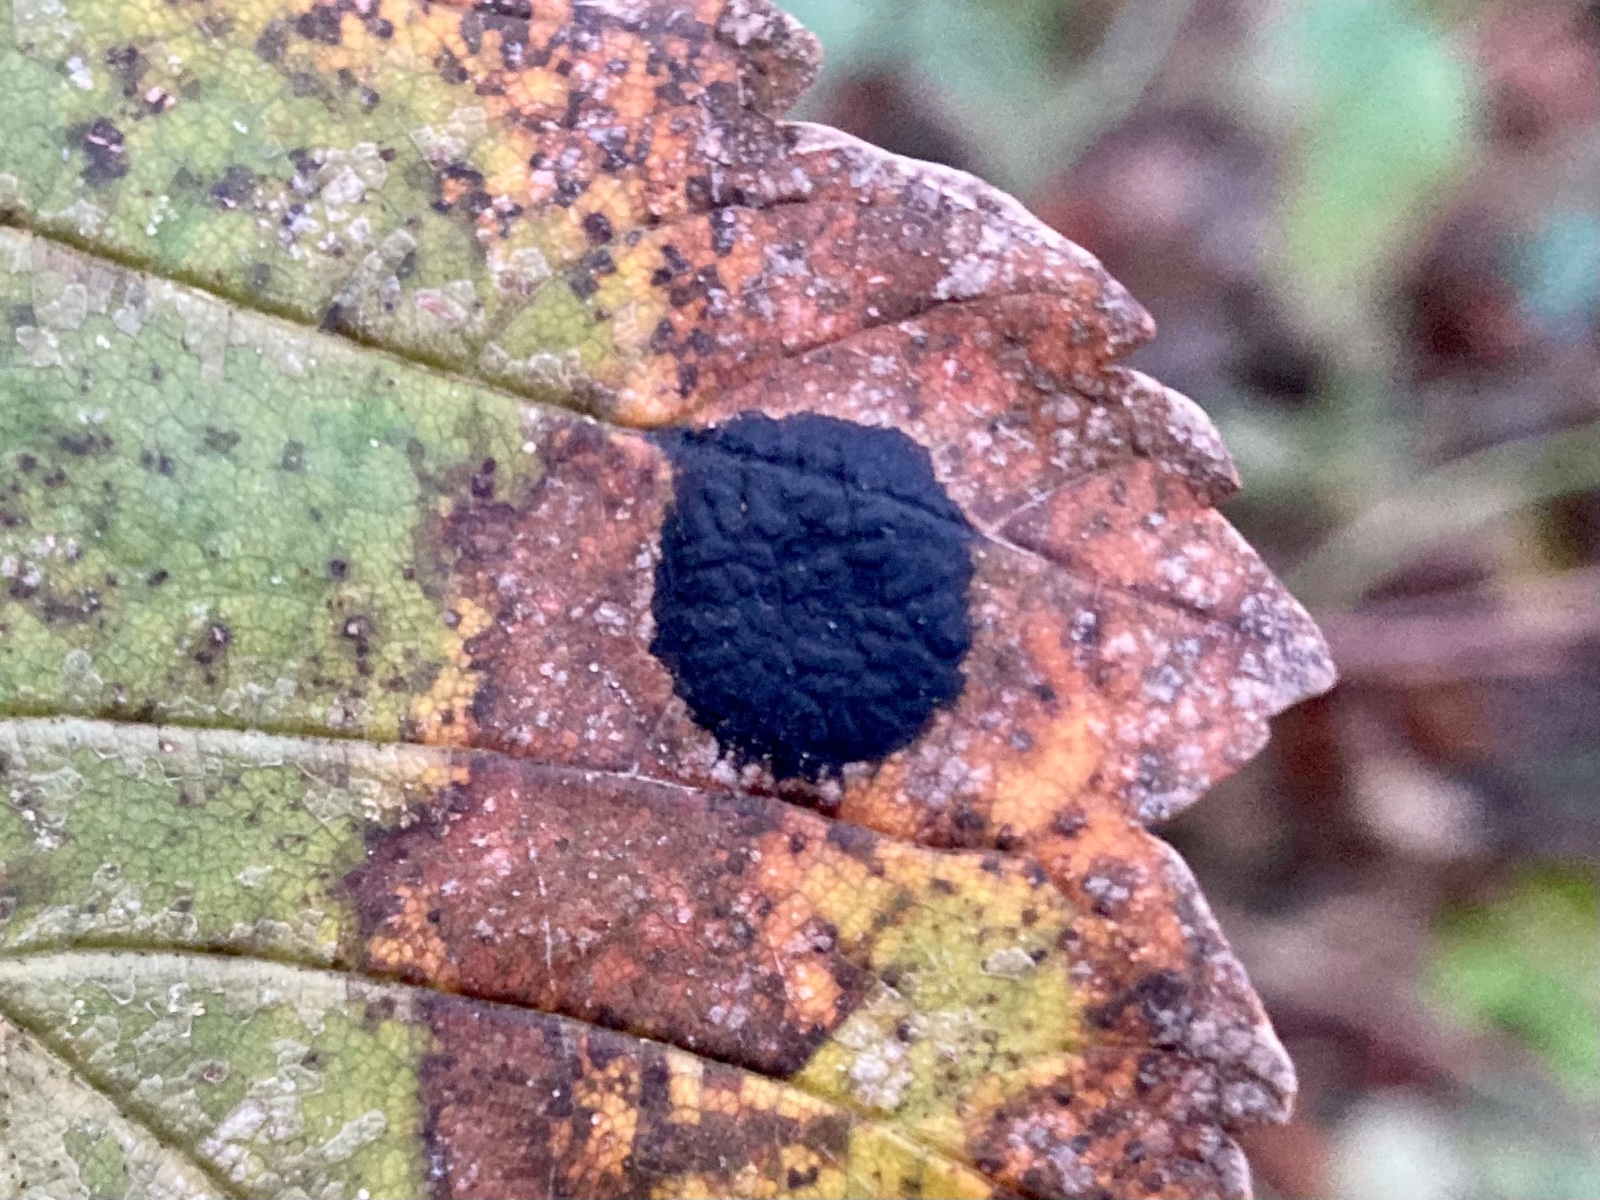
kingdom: Fungi
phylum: Ascomycota
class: Leotiomycetes
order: Rhytismatales
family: Rhytismataceae
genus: Rhytisma
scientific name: Rhytisma acerinum
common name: ahorn-rynkeplet
